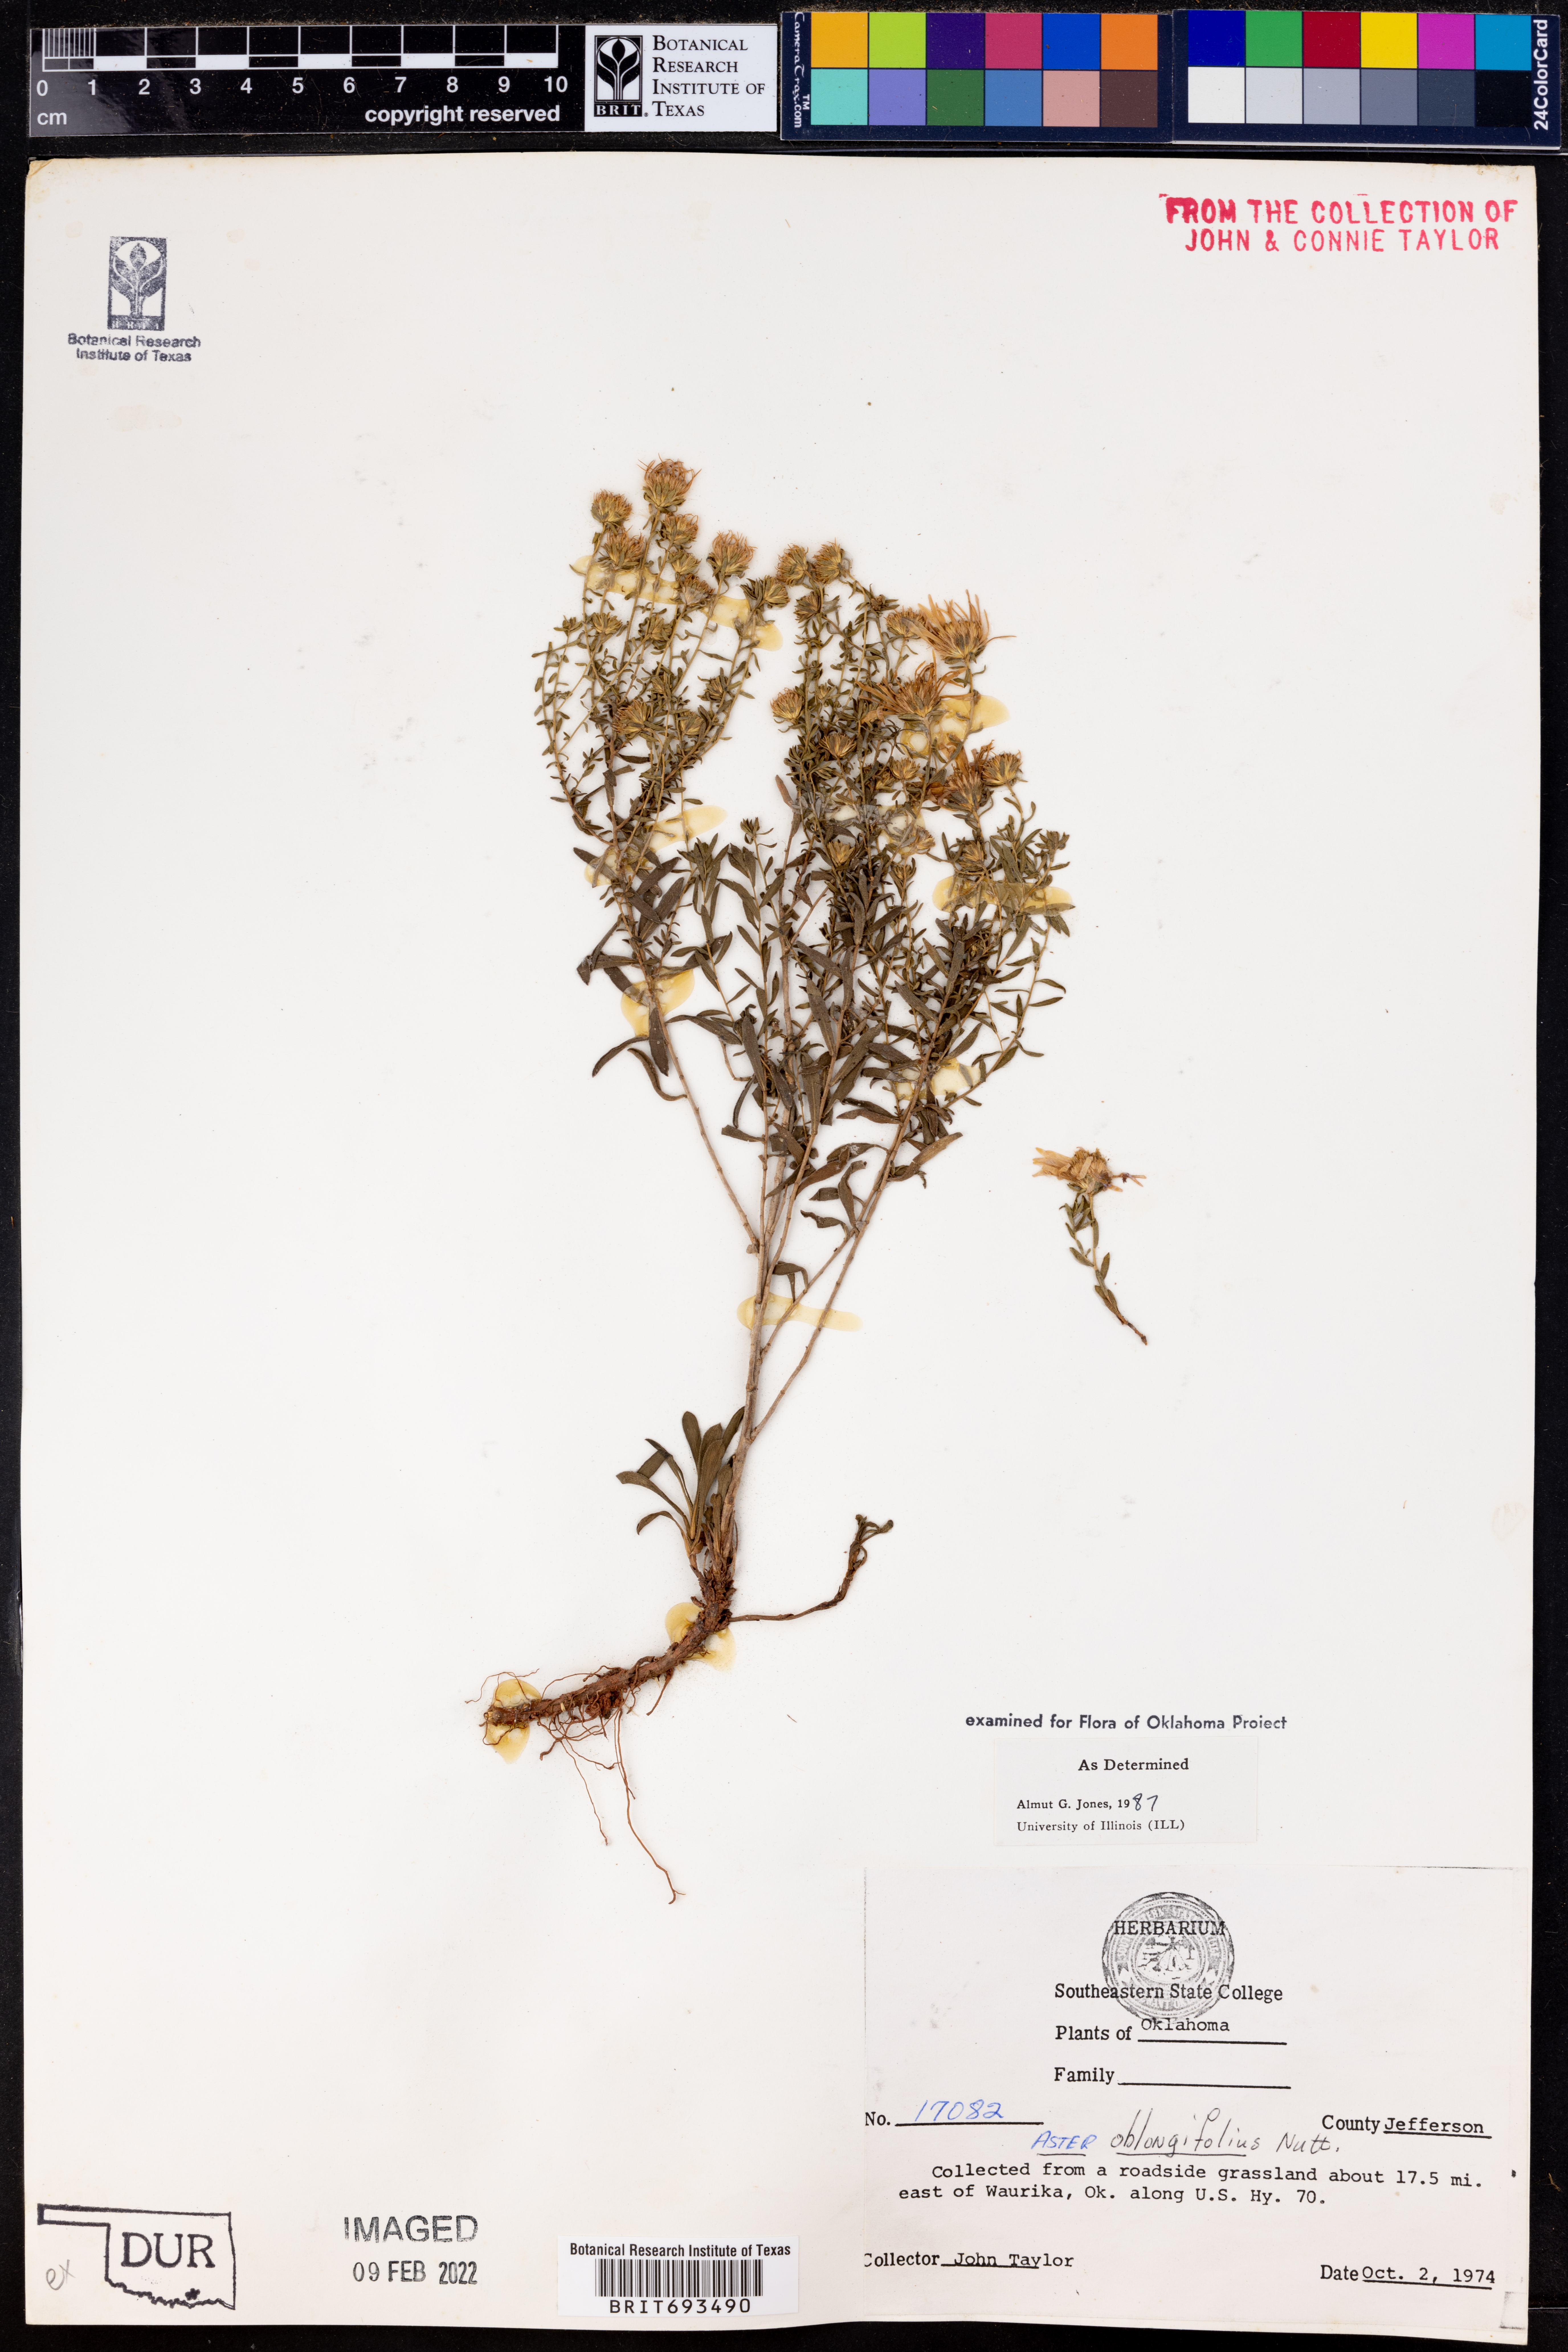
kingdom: Plantae
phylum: Tracheophyta
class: Magnoliopsida
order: Asterales
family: Asteraceae
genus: Symphyotrichum
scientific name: Symphyotrichum oblongifolium
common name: Aromatic aster
